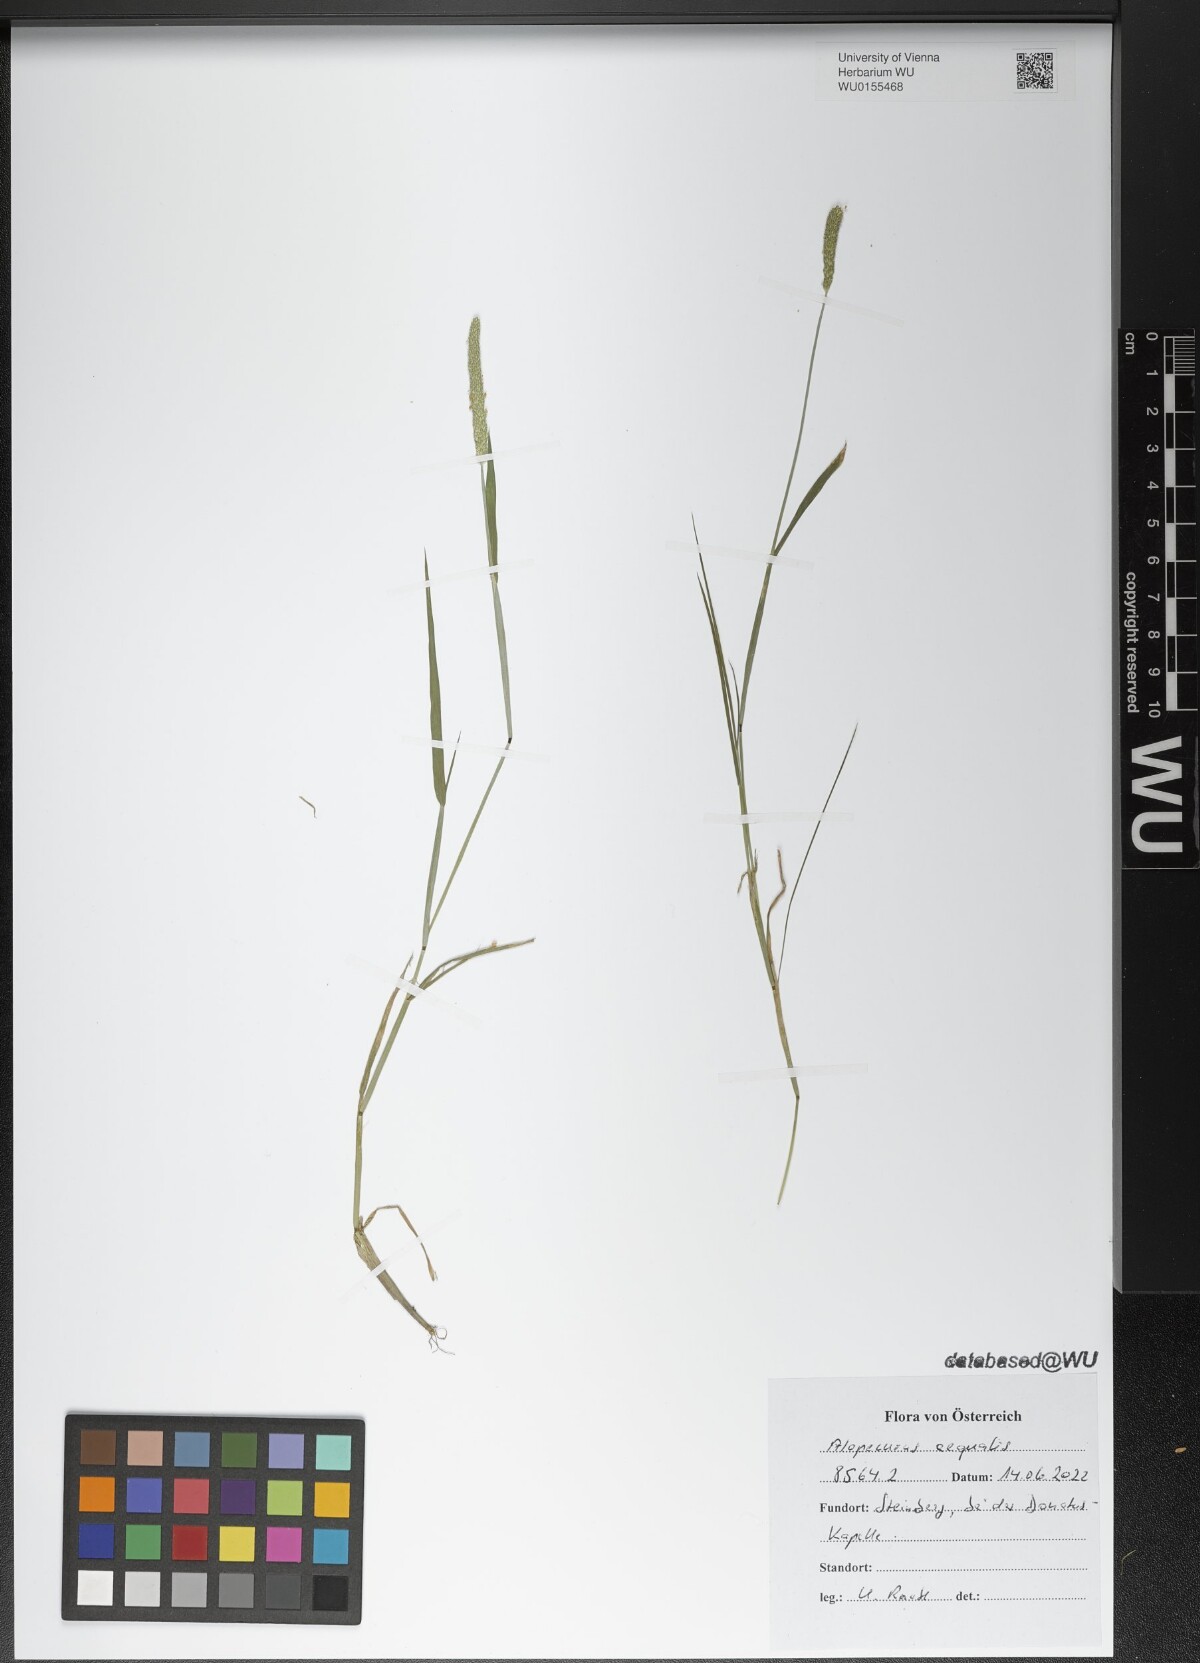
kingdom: Plantae
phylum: Tracheophyta
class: Liliopsida
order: Poales
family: Poaceae
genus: Alopecurus
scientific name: Alopecurus aequalis
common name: Orange foxtail
